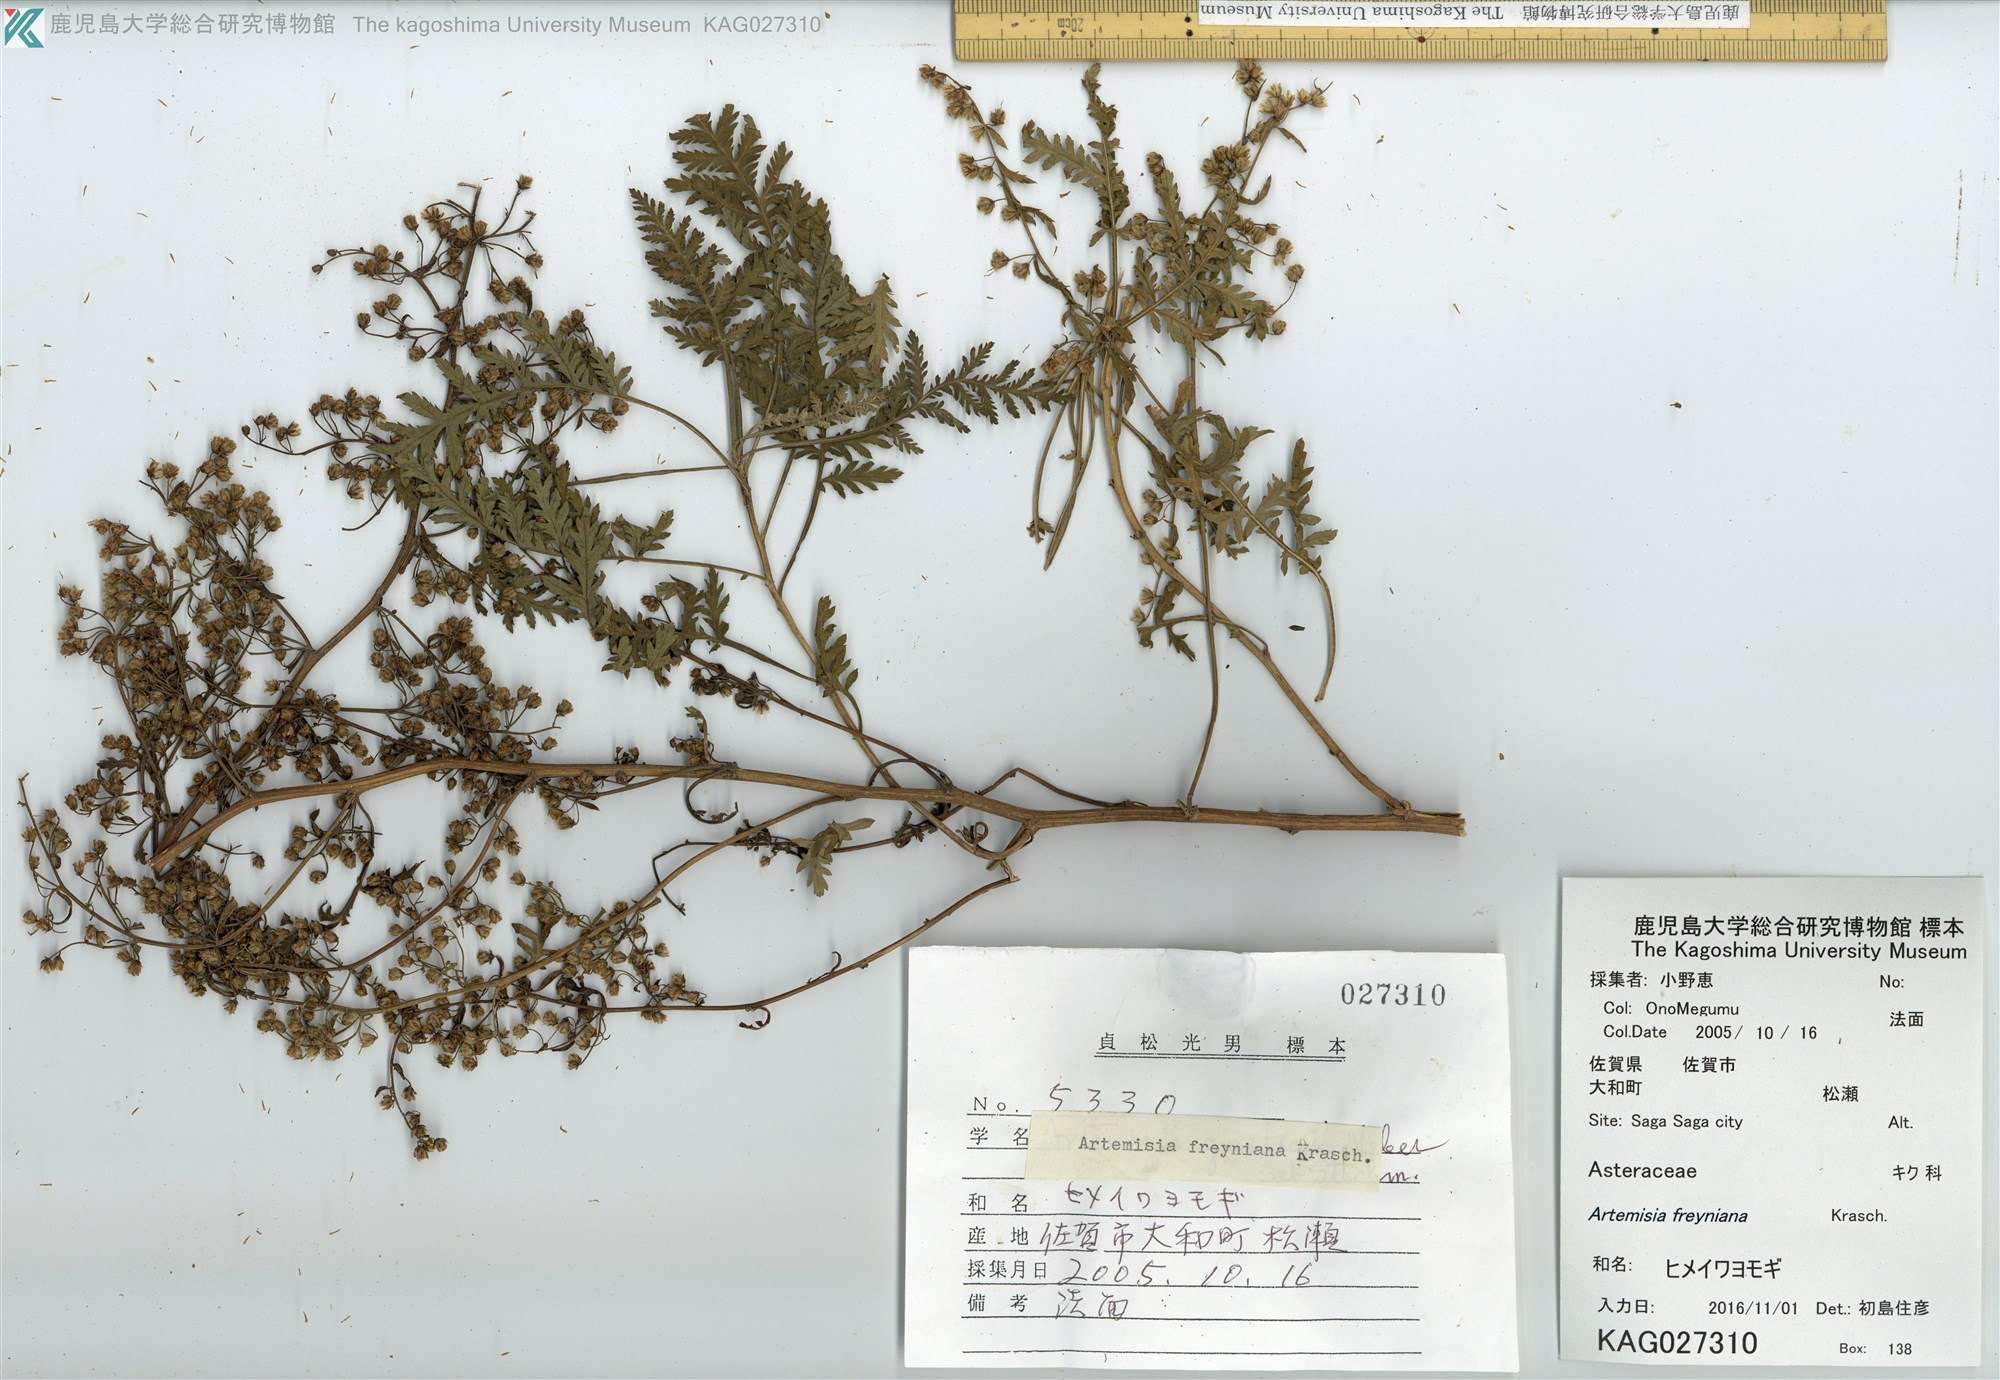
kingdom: Plantae
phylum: Tracheophyta
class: Magnoliopsida
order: Asterales
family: Asteraceae
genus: Artemisia
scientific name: Artemisia freyniana
